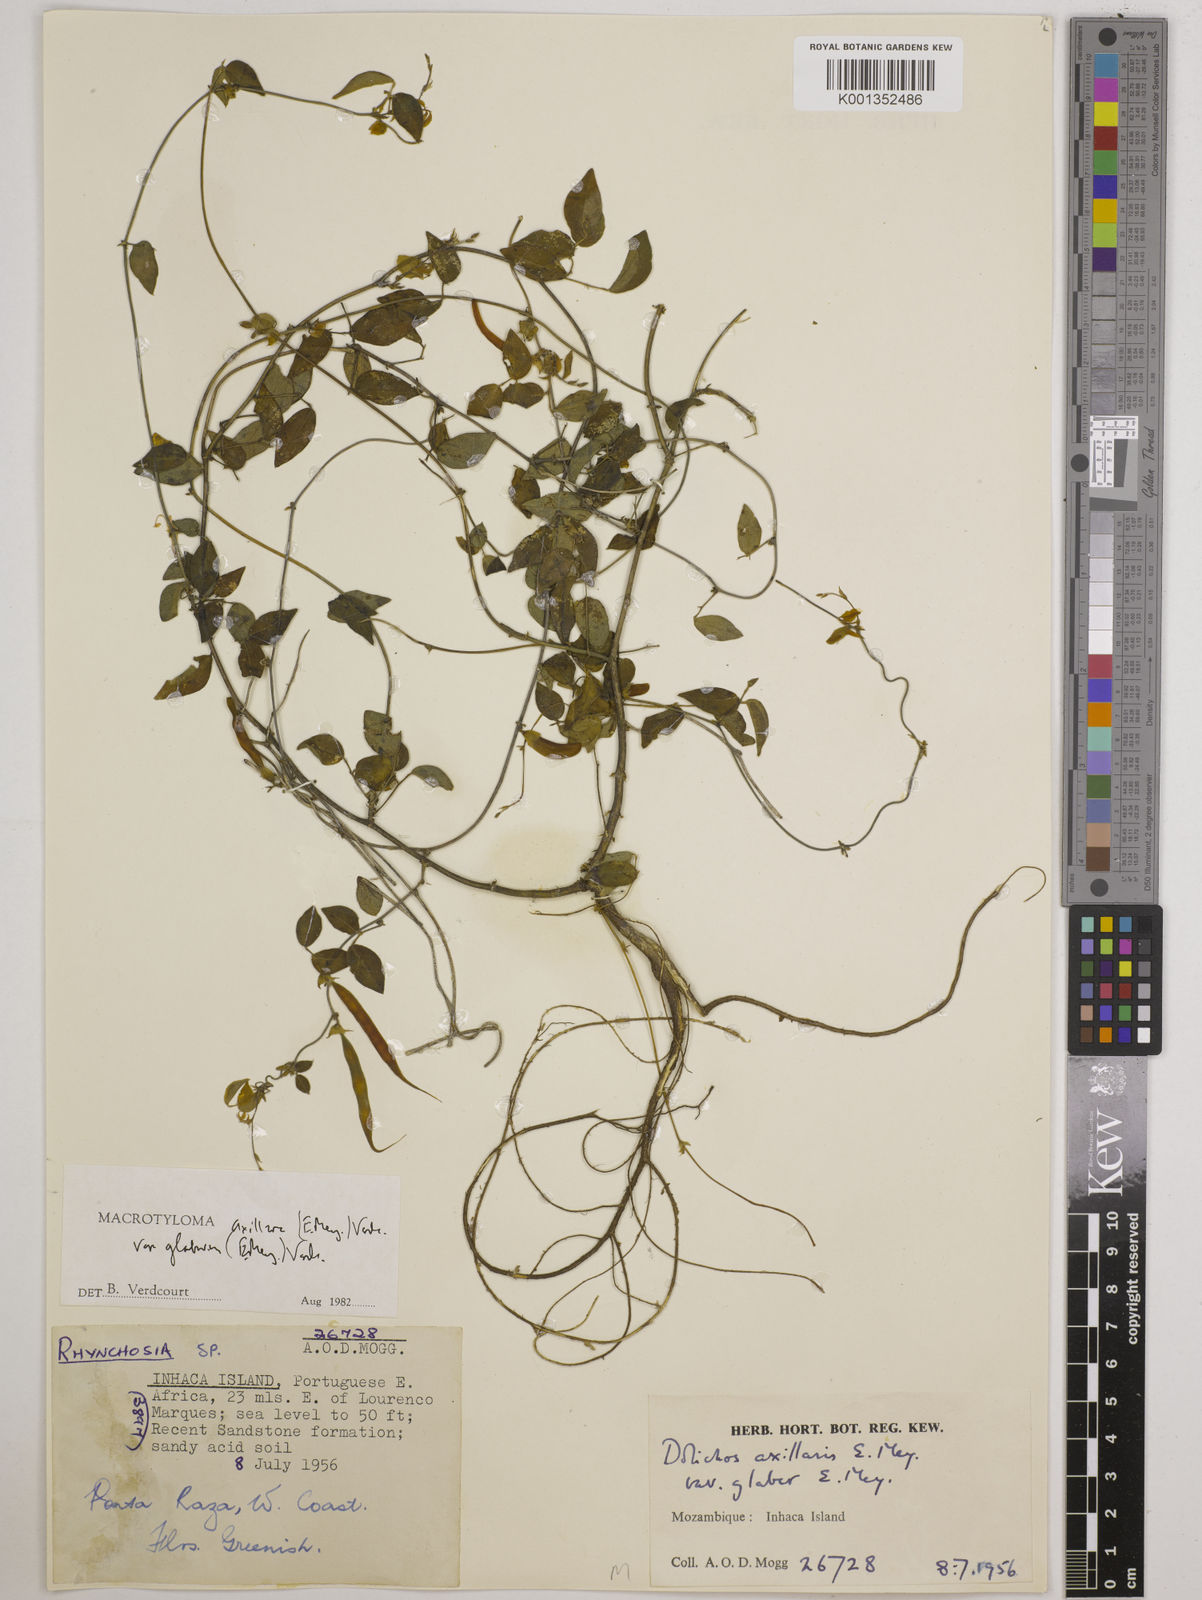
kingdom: Plantae
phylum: Tracheophyta
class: Magnoliopsida
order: Fabales
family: Fabaceae
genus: Macrotyloma
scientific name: Macrotyloma
